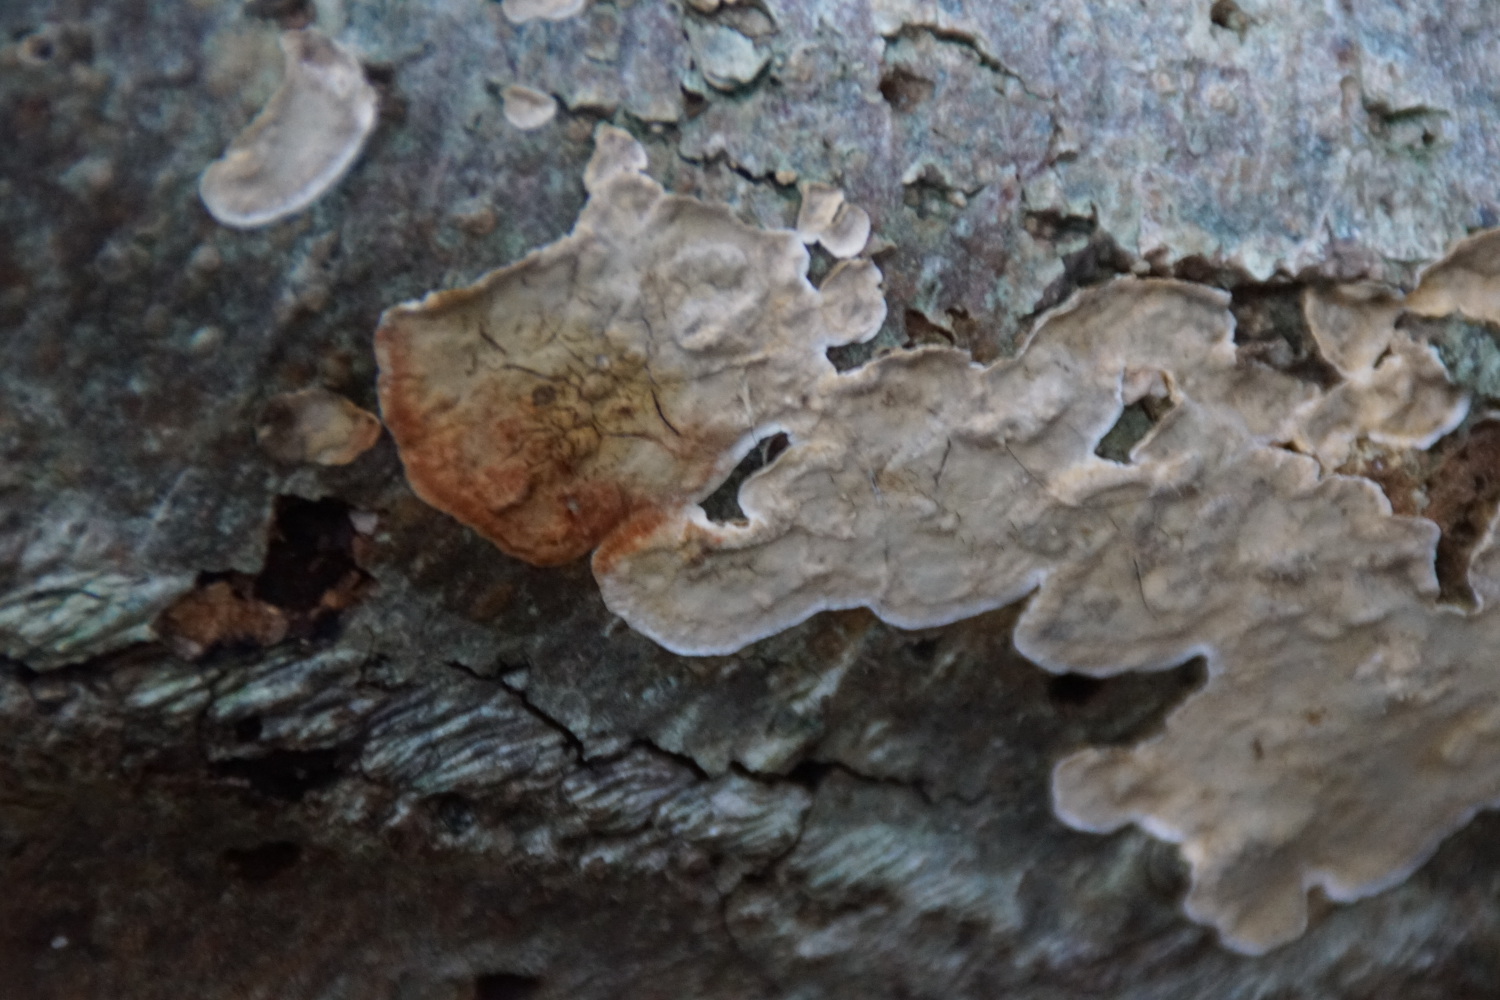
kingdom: Fungi
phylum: Basidiomycota
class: Agaricomycetes
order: Russulales
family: Stereaceae
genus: Stereum
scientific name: Stereum rugosum
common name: rynket lædersvamp
